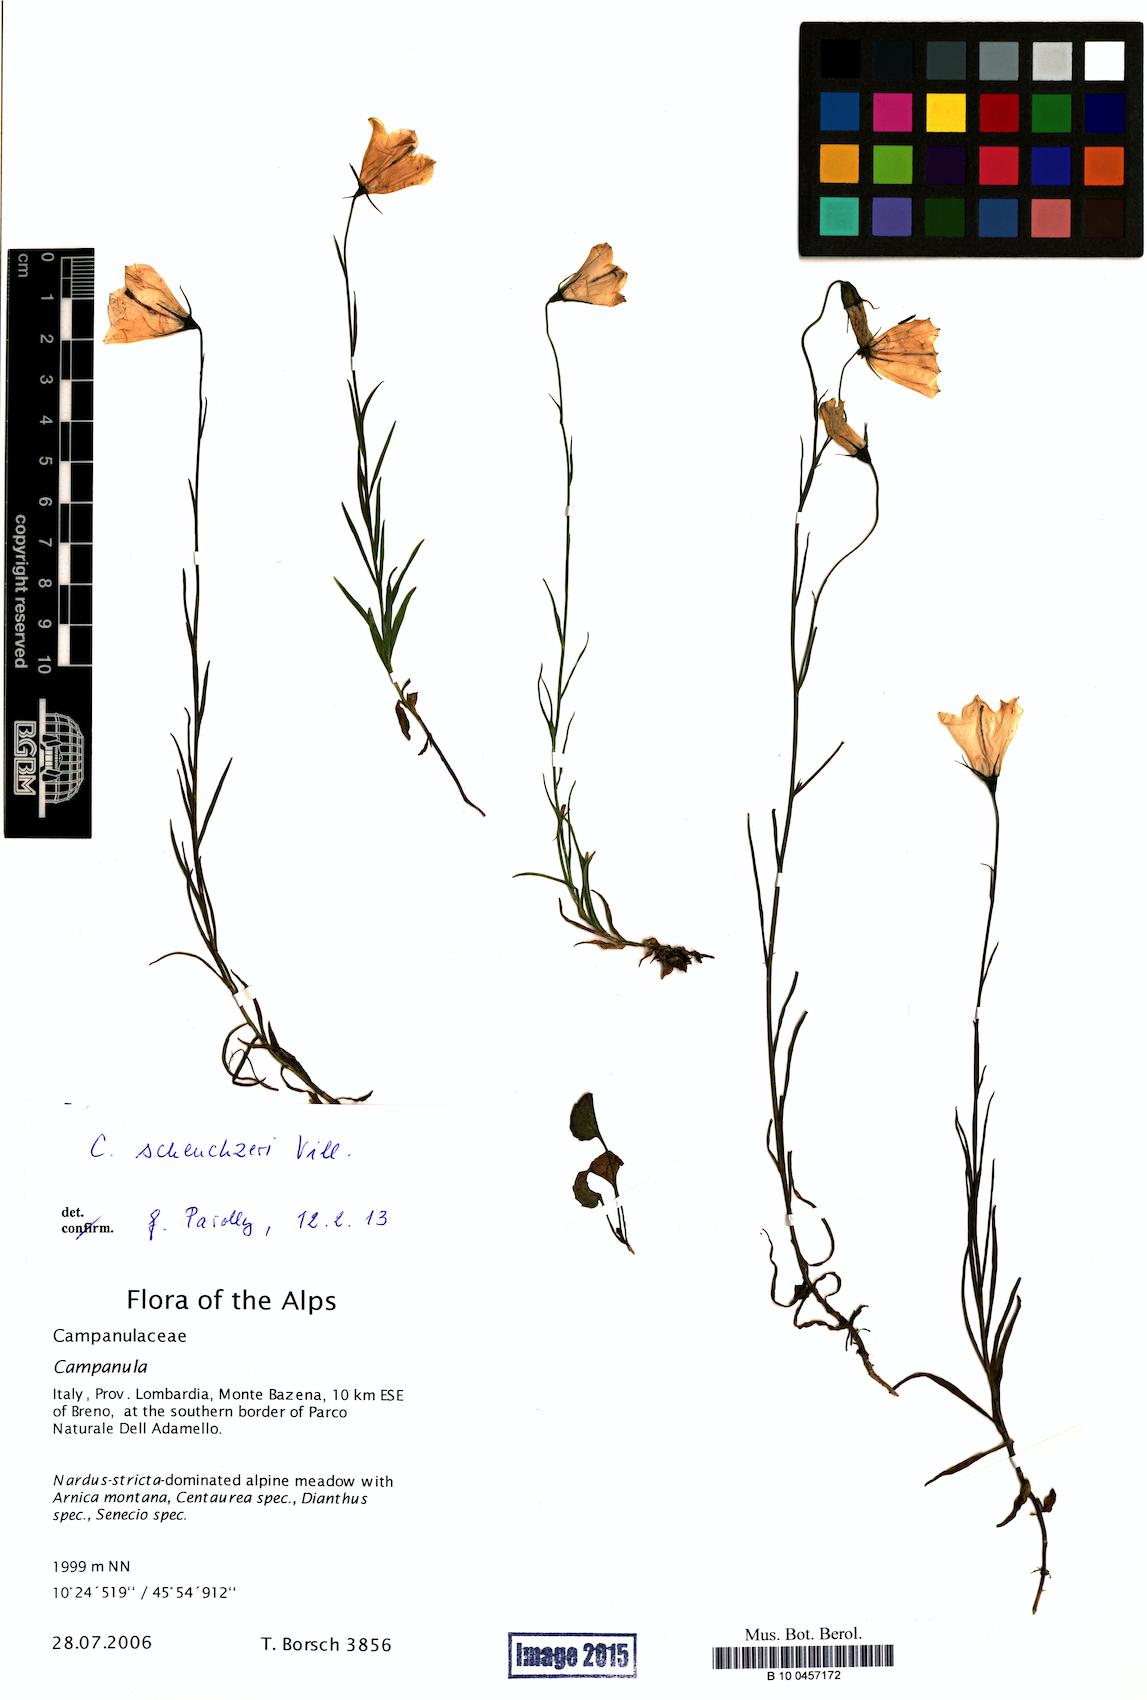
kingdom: Plantae
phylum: Tracheophyta
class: Magnoliopsida
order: Asterales
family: Campanulaceae
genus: Campanula
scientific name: Campanula scheuchzeri
